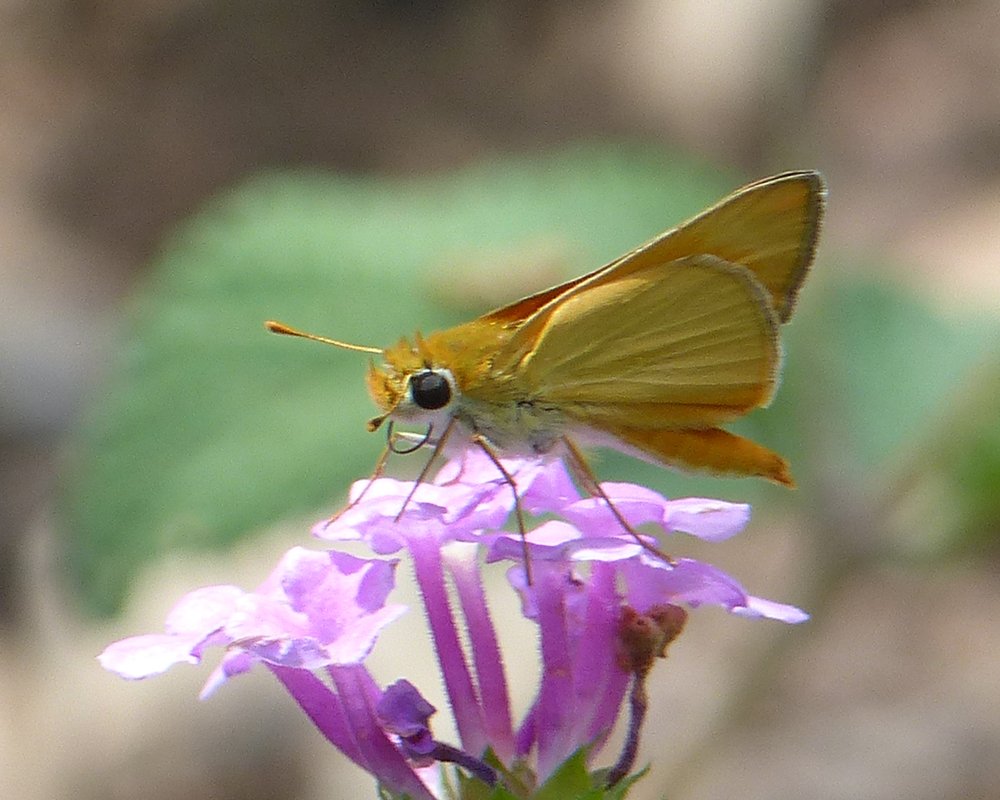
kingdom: Animalia
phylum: Arthropoda
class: Insecta
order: Lepidoptera
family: Hesperiidae
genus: Copaeodes
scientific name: Copaeodes aurantiaca
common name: Orange Skipperling
